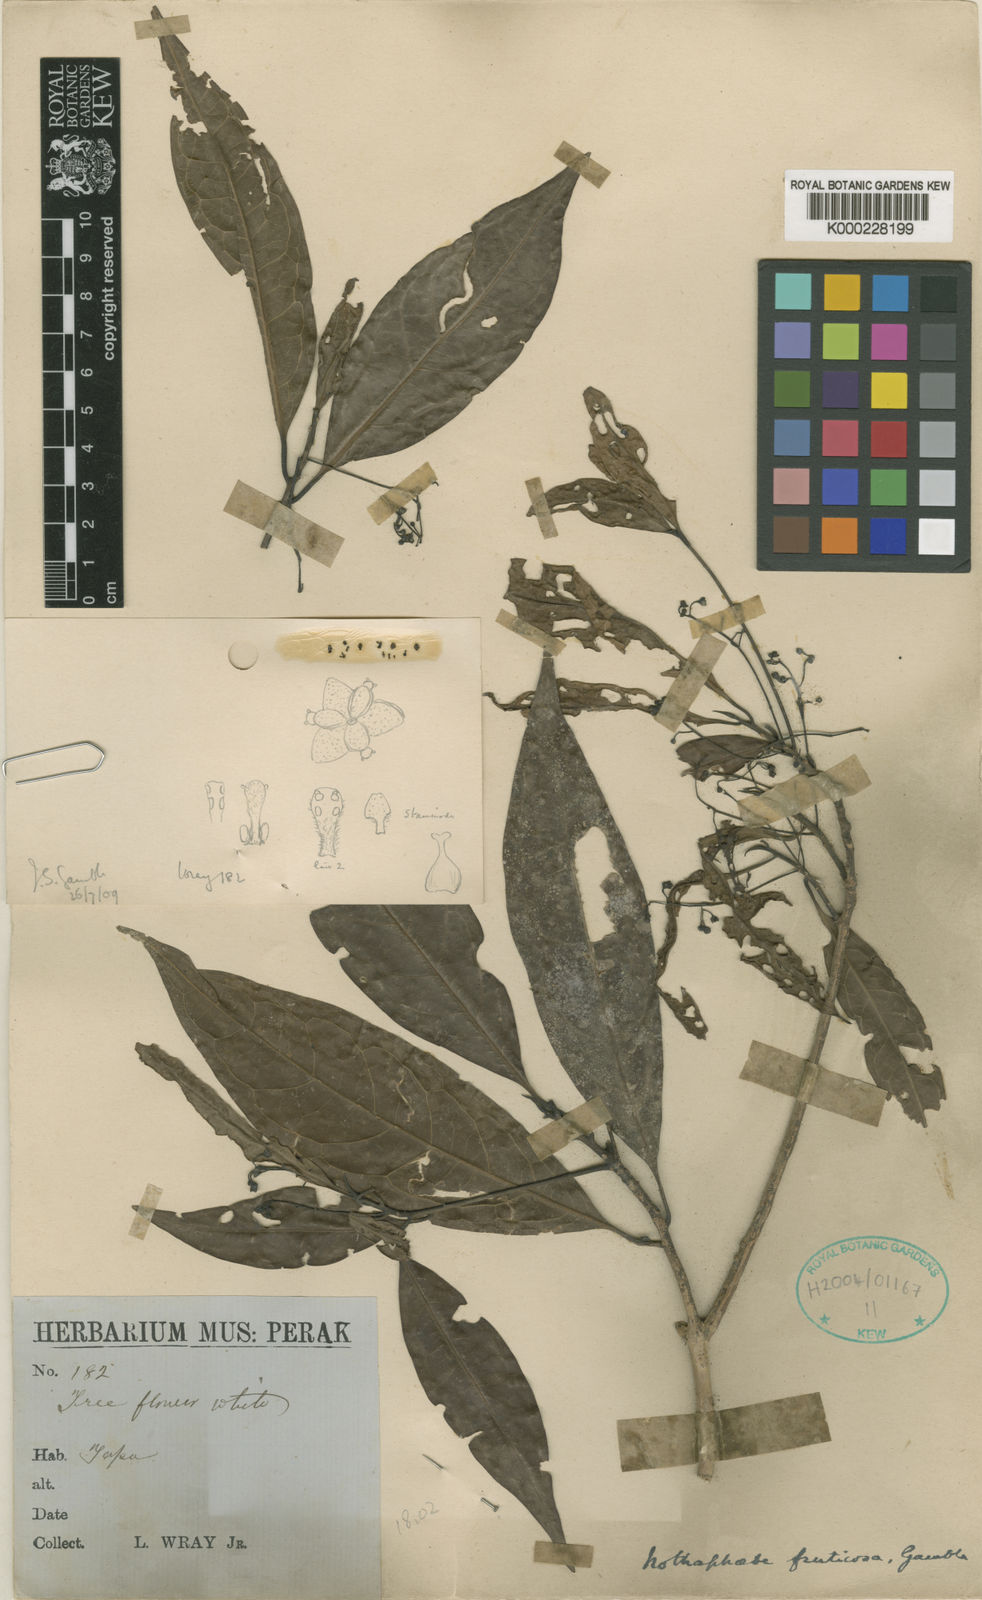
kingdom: Plantae
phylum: Tracheophyta
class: Magnoliopsida
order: Laurales
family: Lauraceae
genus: Nothaphoebe
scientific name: Nothaphoebe
